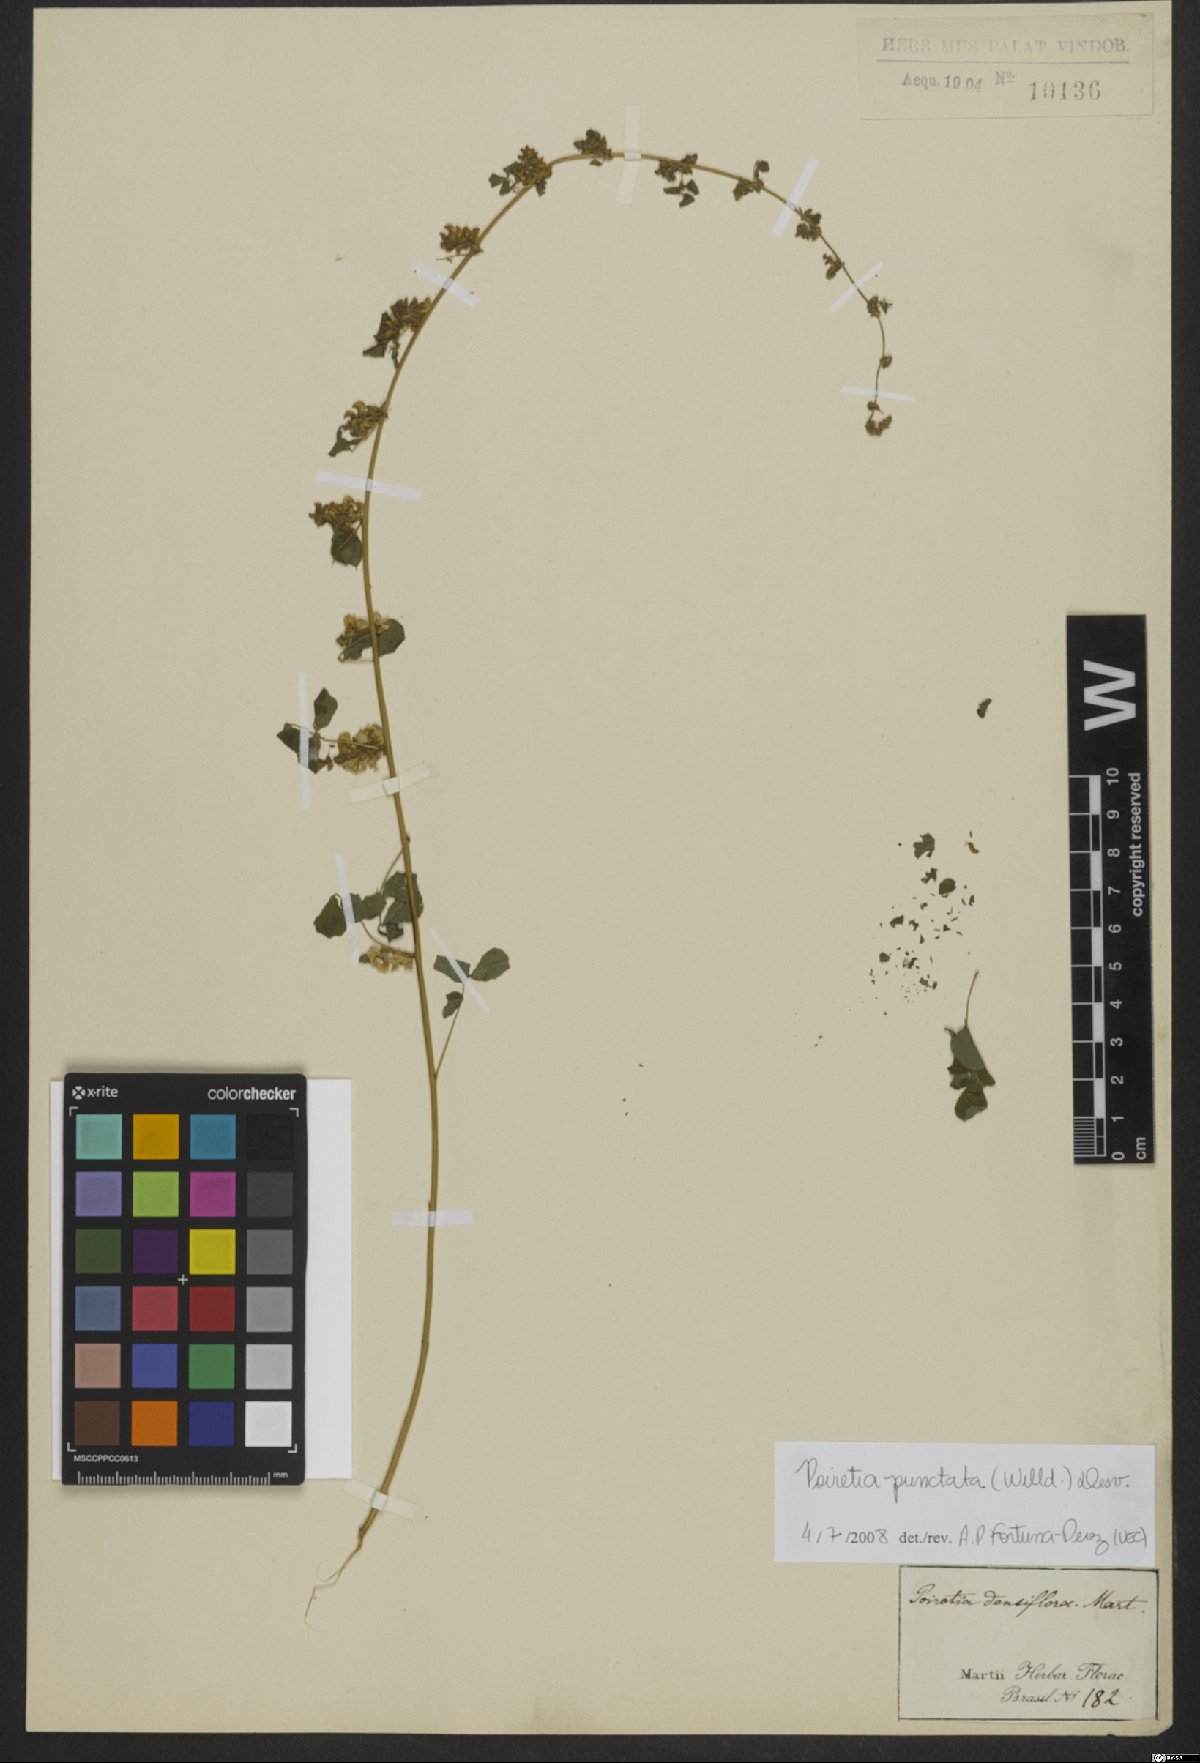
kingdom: Plantae
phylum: Tracheophyta
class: Magnoliopsida
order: Fabales
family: Fabaceae
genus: Poiretia
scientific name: Poiretia punctata
